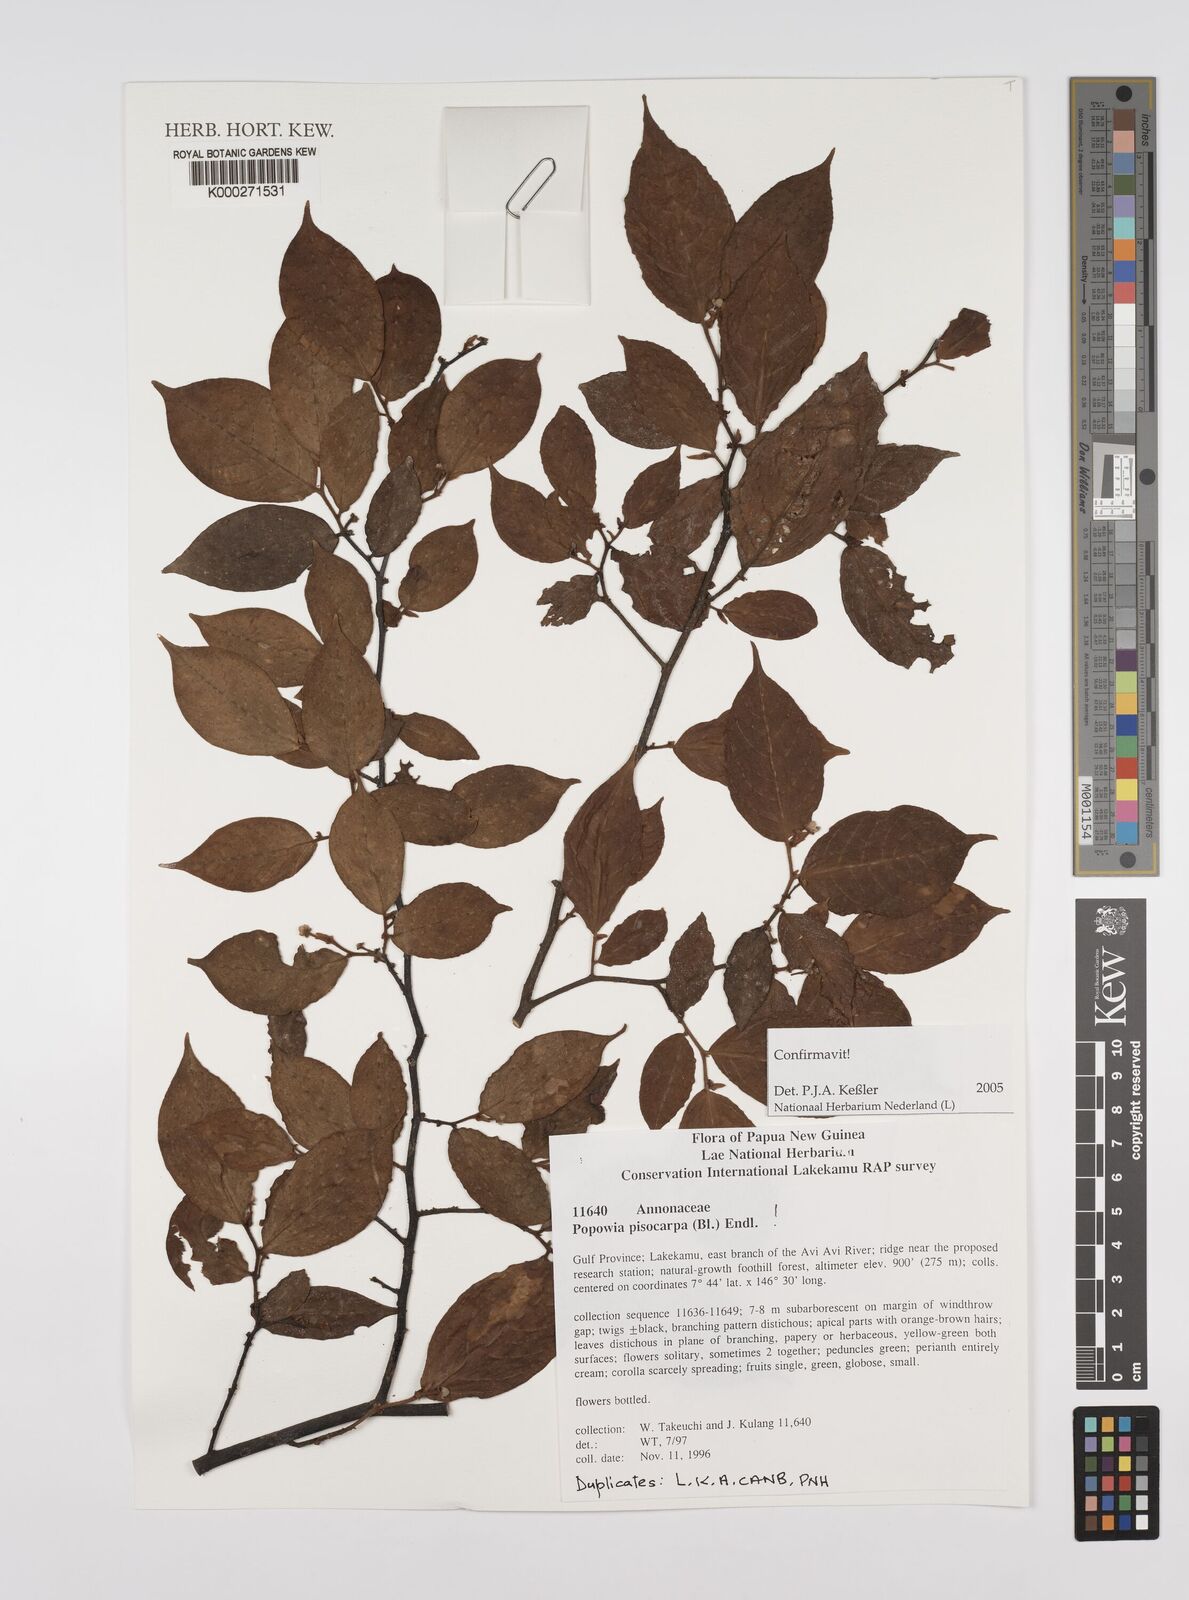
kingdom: Plantae
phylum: Tracheophyta
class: Magnoliopsida
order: Magnoliales
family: Annonaceae
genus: Popowia
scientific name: Popowia
